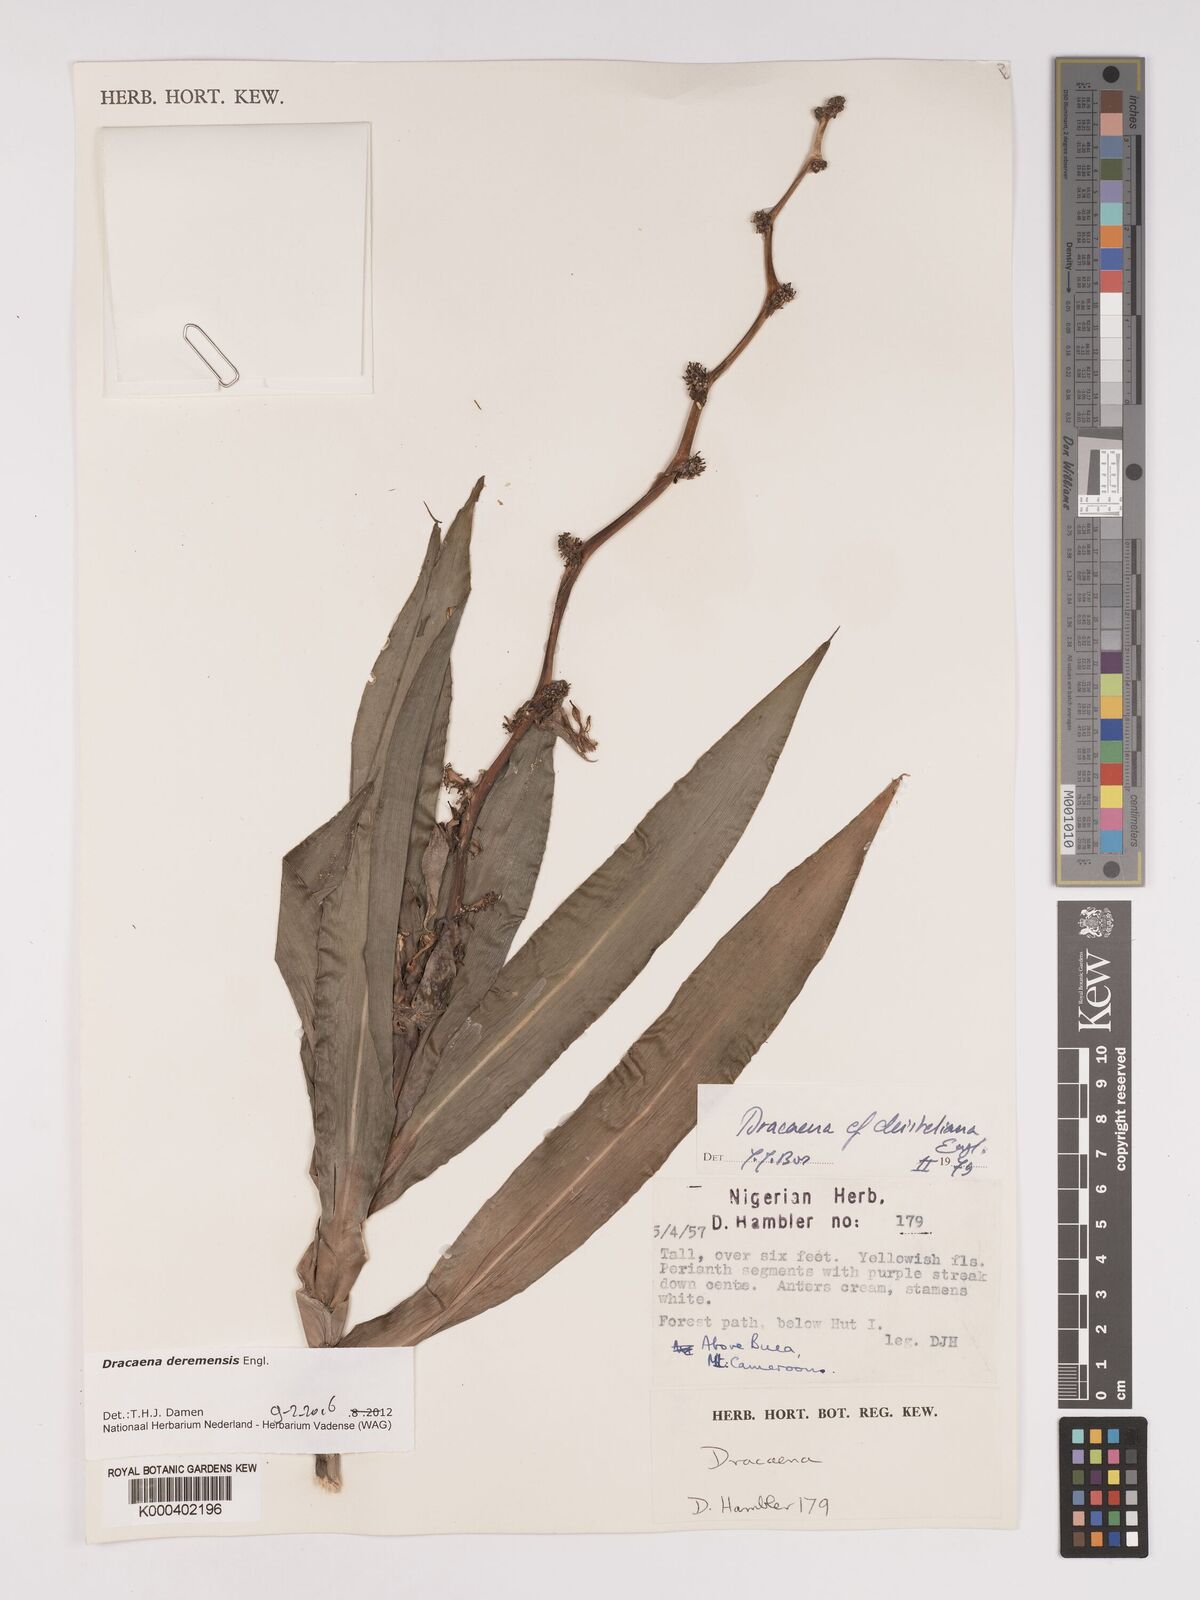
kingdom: Plantae
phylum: Tracheophyta
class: Liliopsida
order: Asparagales
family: Asparagaceae
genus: Dracaena
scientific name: Dracaena fragrans
